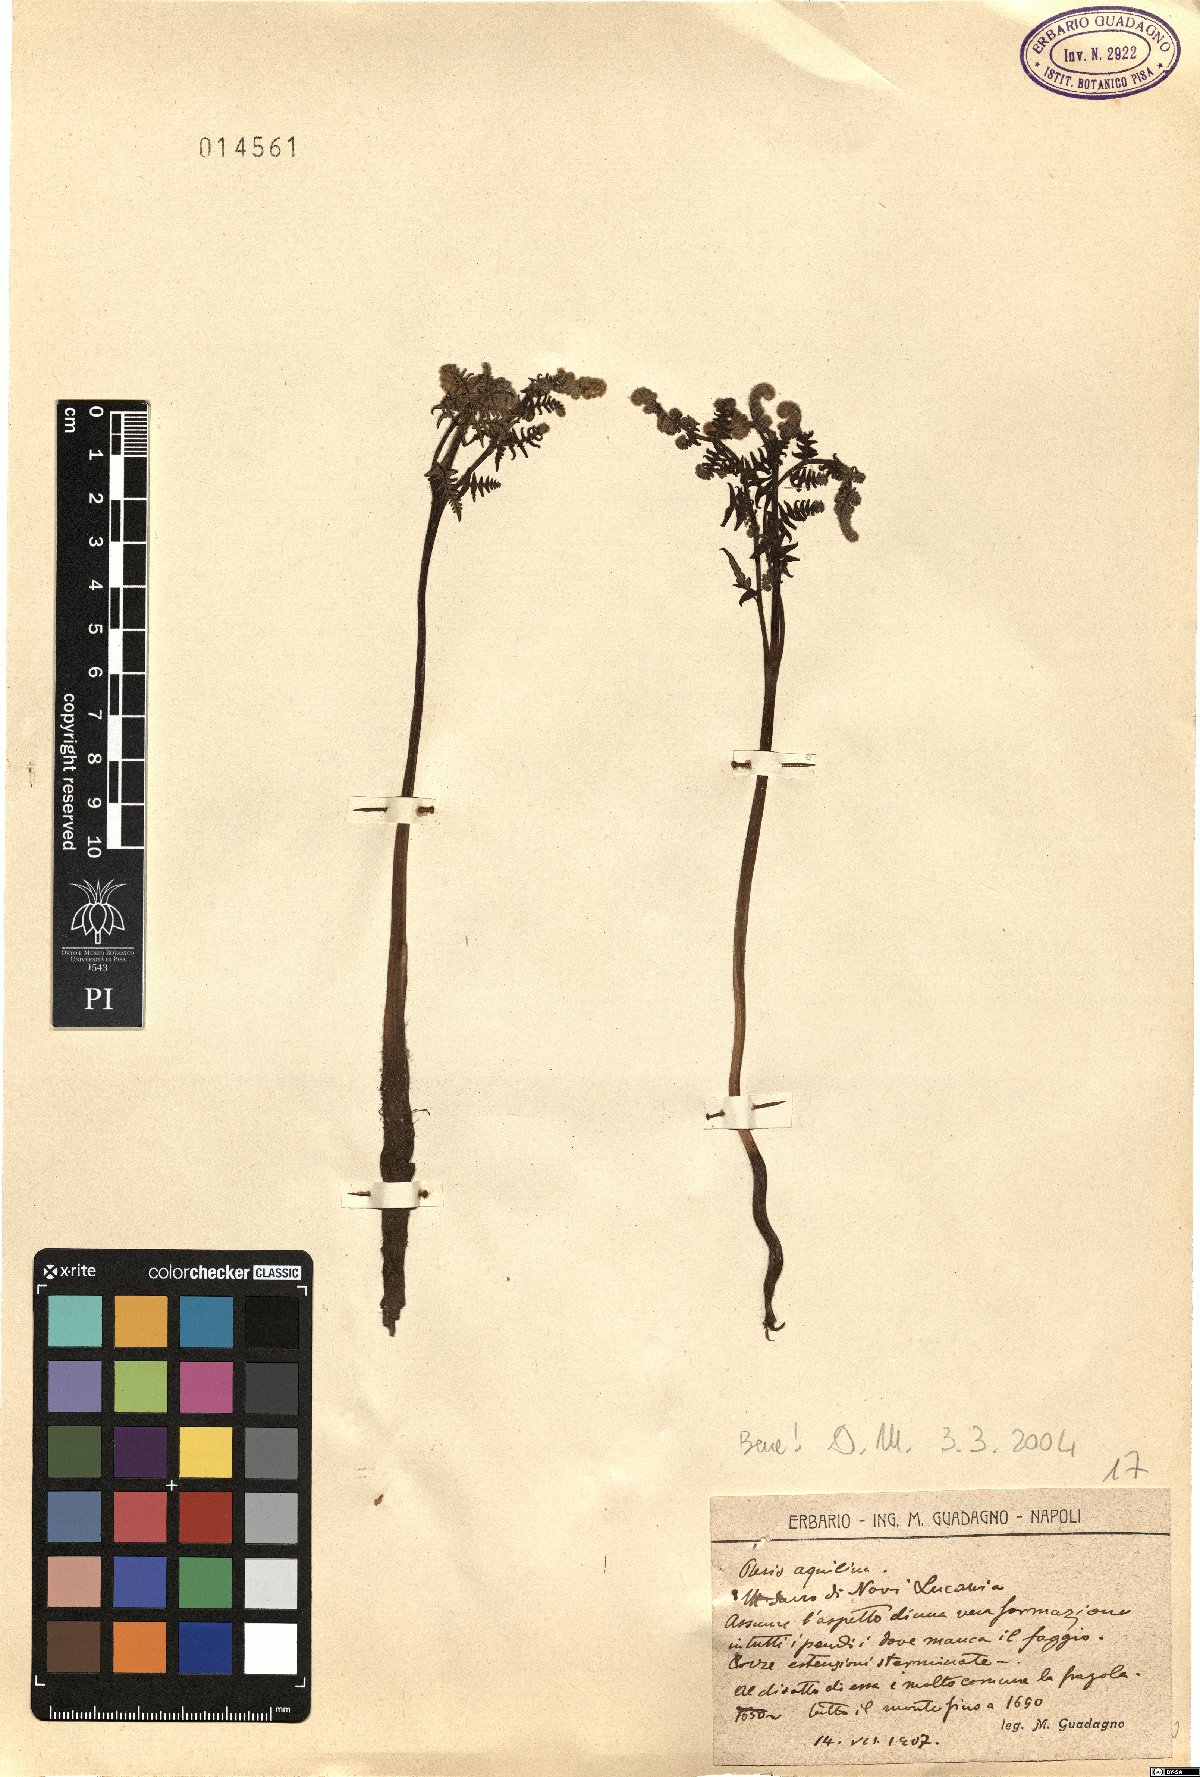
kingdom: Plantae
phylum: Tracheophyta
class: Polypodiopsida
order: Polypodiales
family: Dennstaedtiaceae
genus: Pteridium
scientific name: Pteridium aquilinum
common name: Bracken
